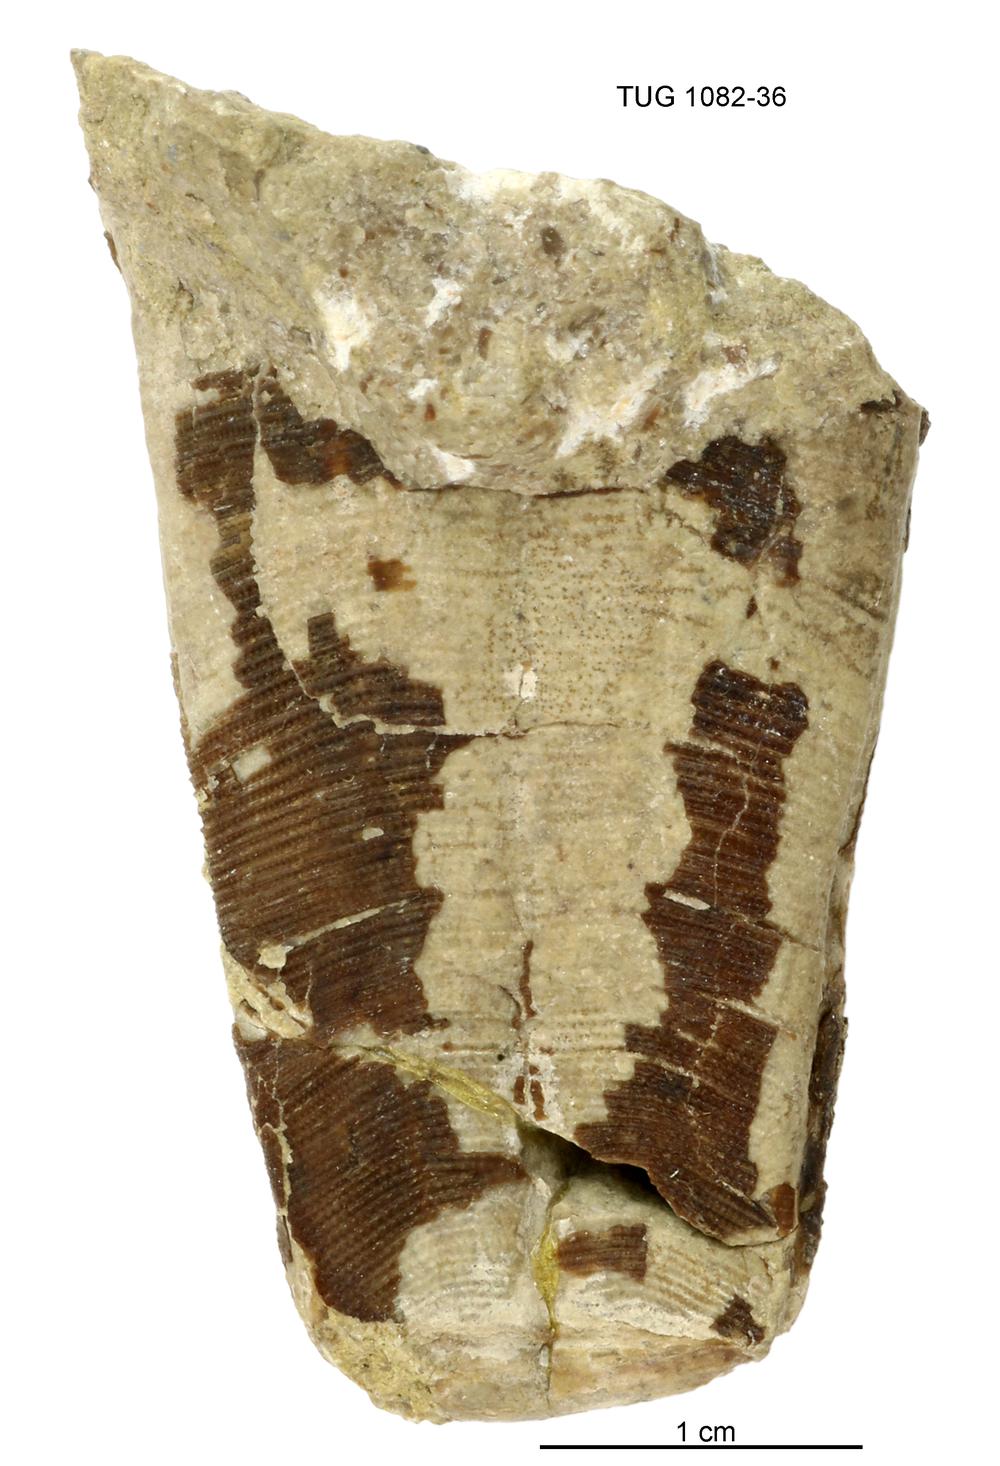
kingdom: Animalia
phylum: Cnidaria
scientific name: Cnidaria
